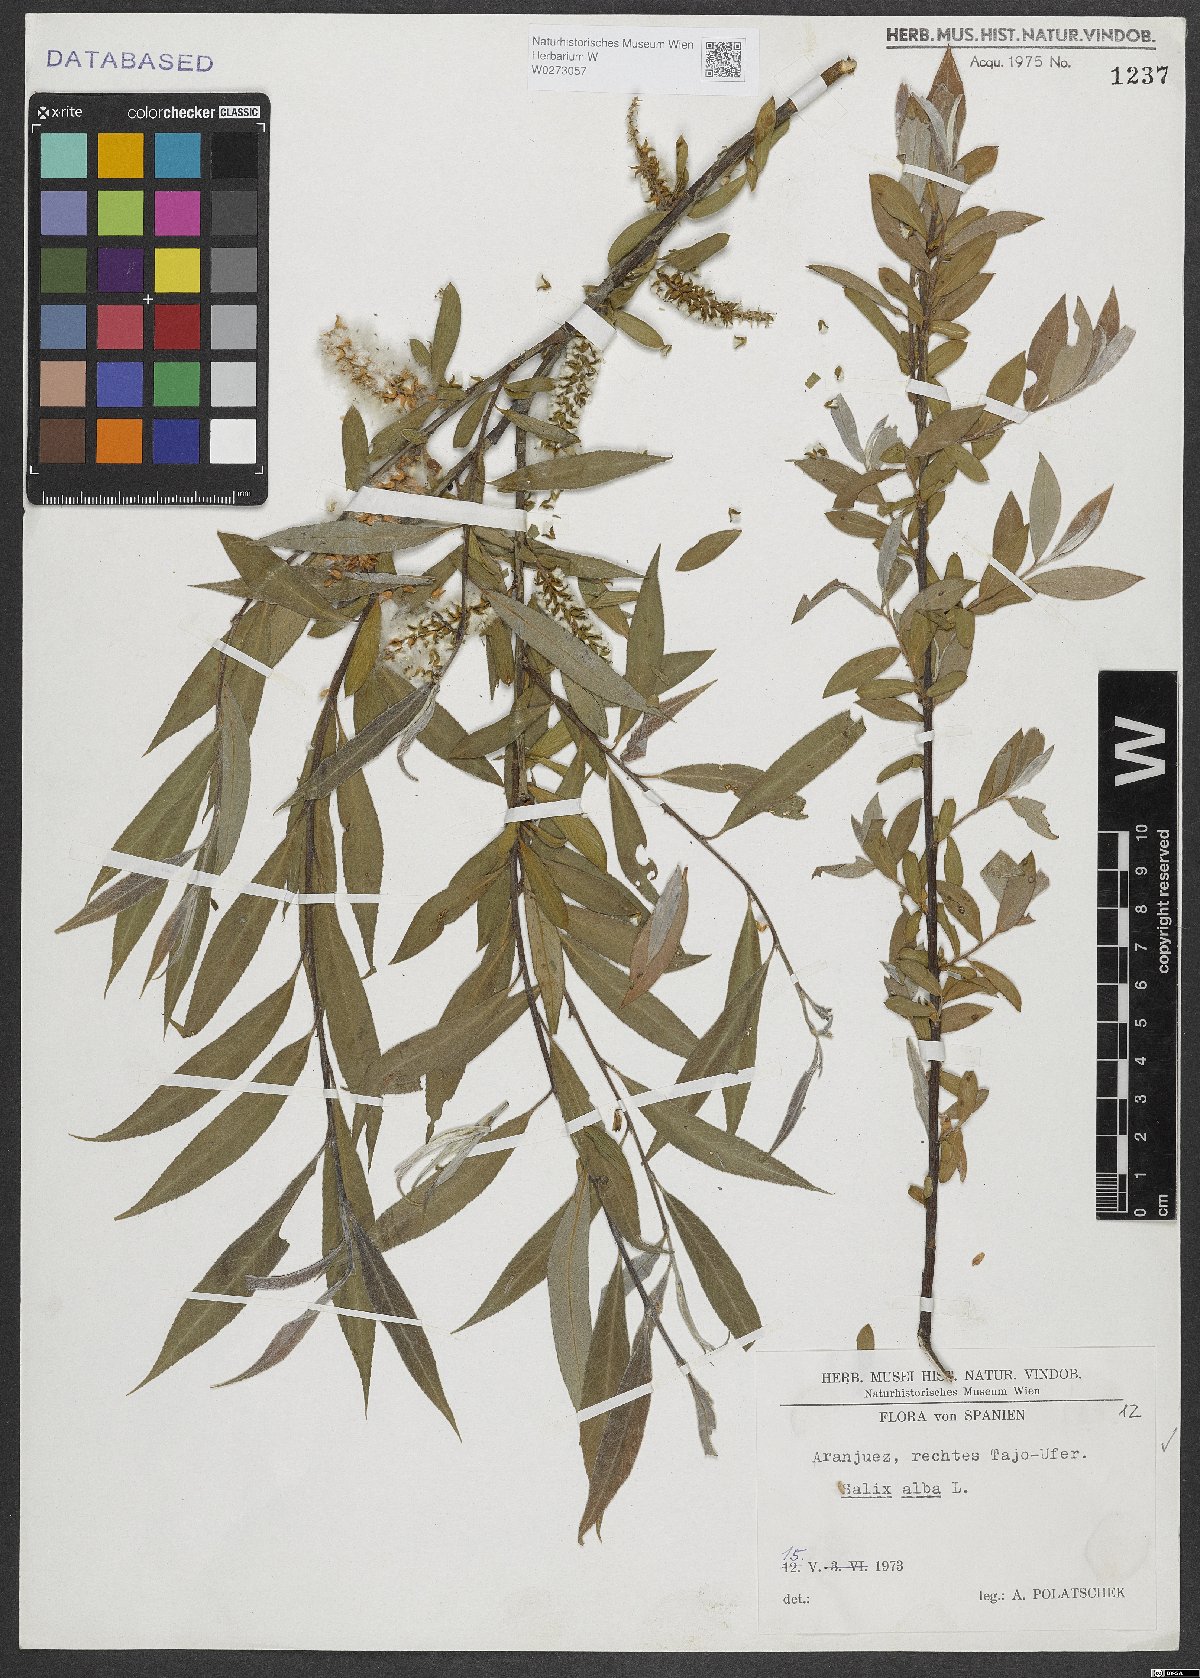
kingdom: Plantae
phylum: Tracheophyta
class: Magnoliopsida
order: Malpighiales
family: Salicaceae
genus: Salix
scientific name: Salix alba
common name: White willow
